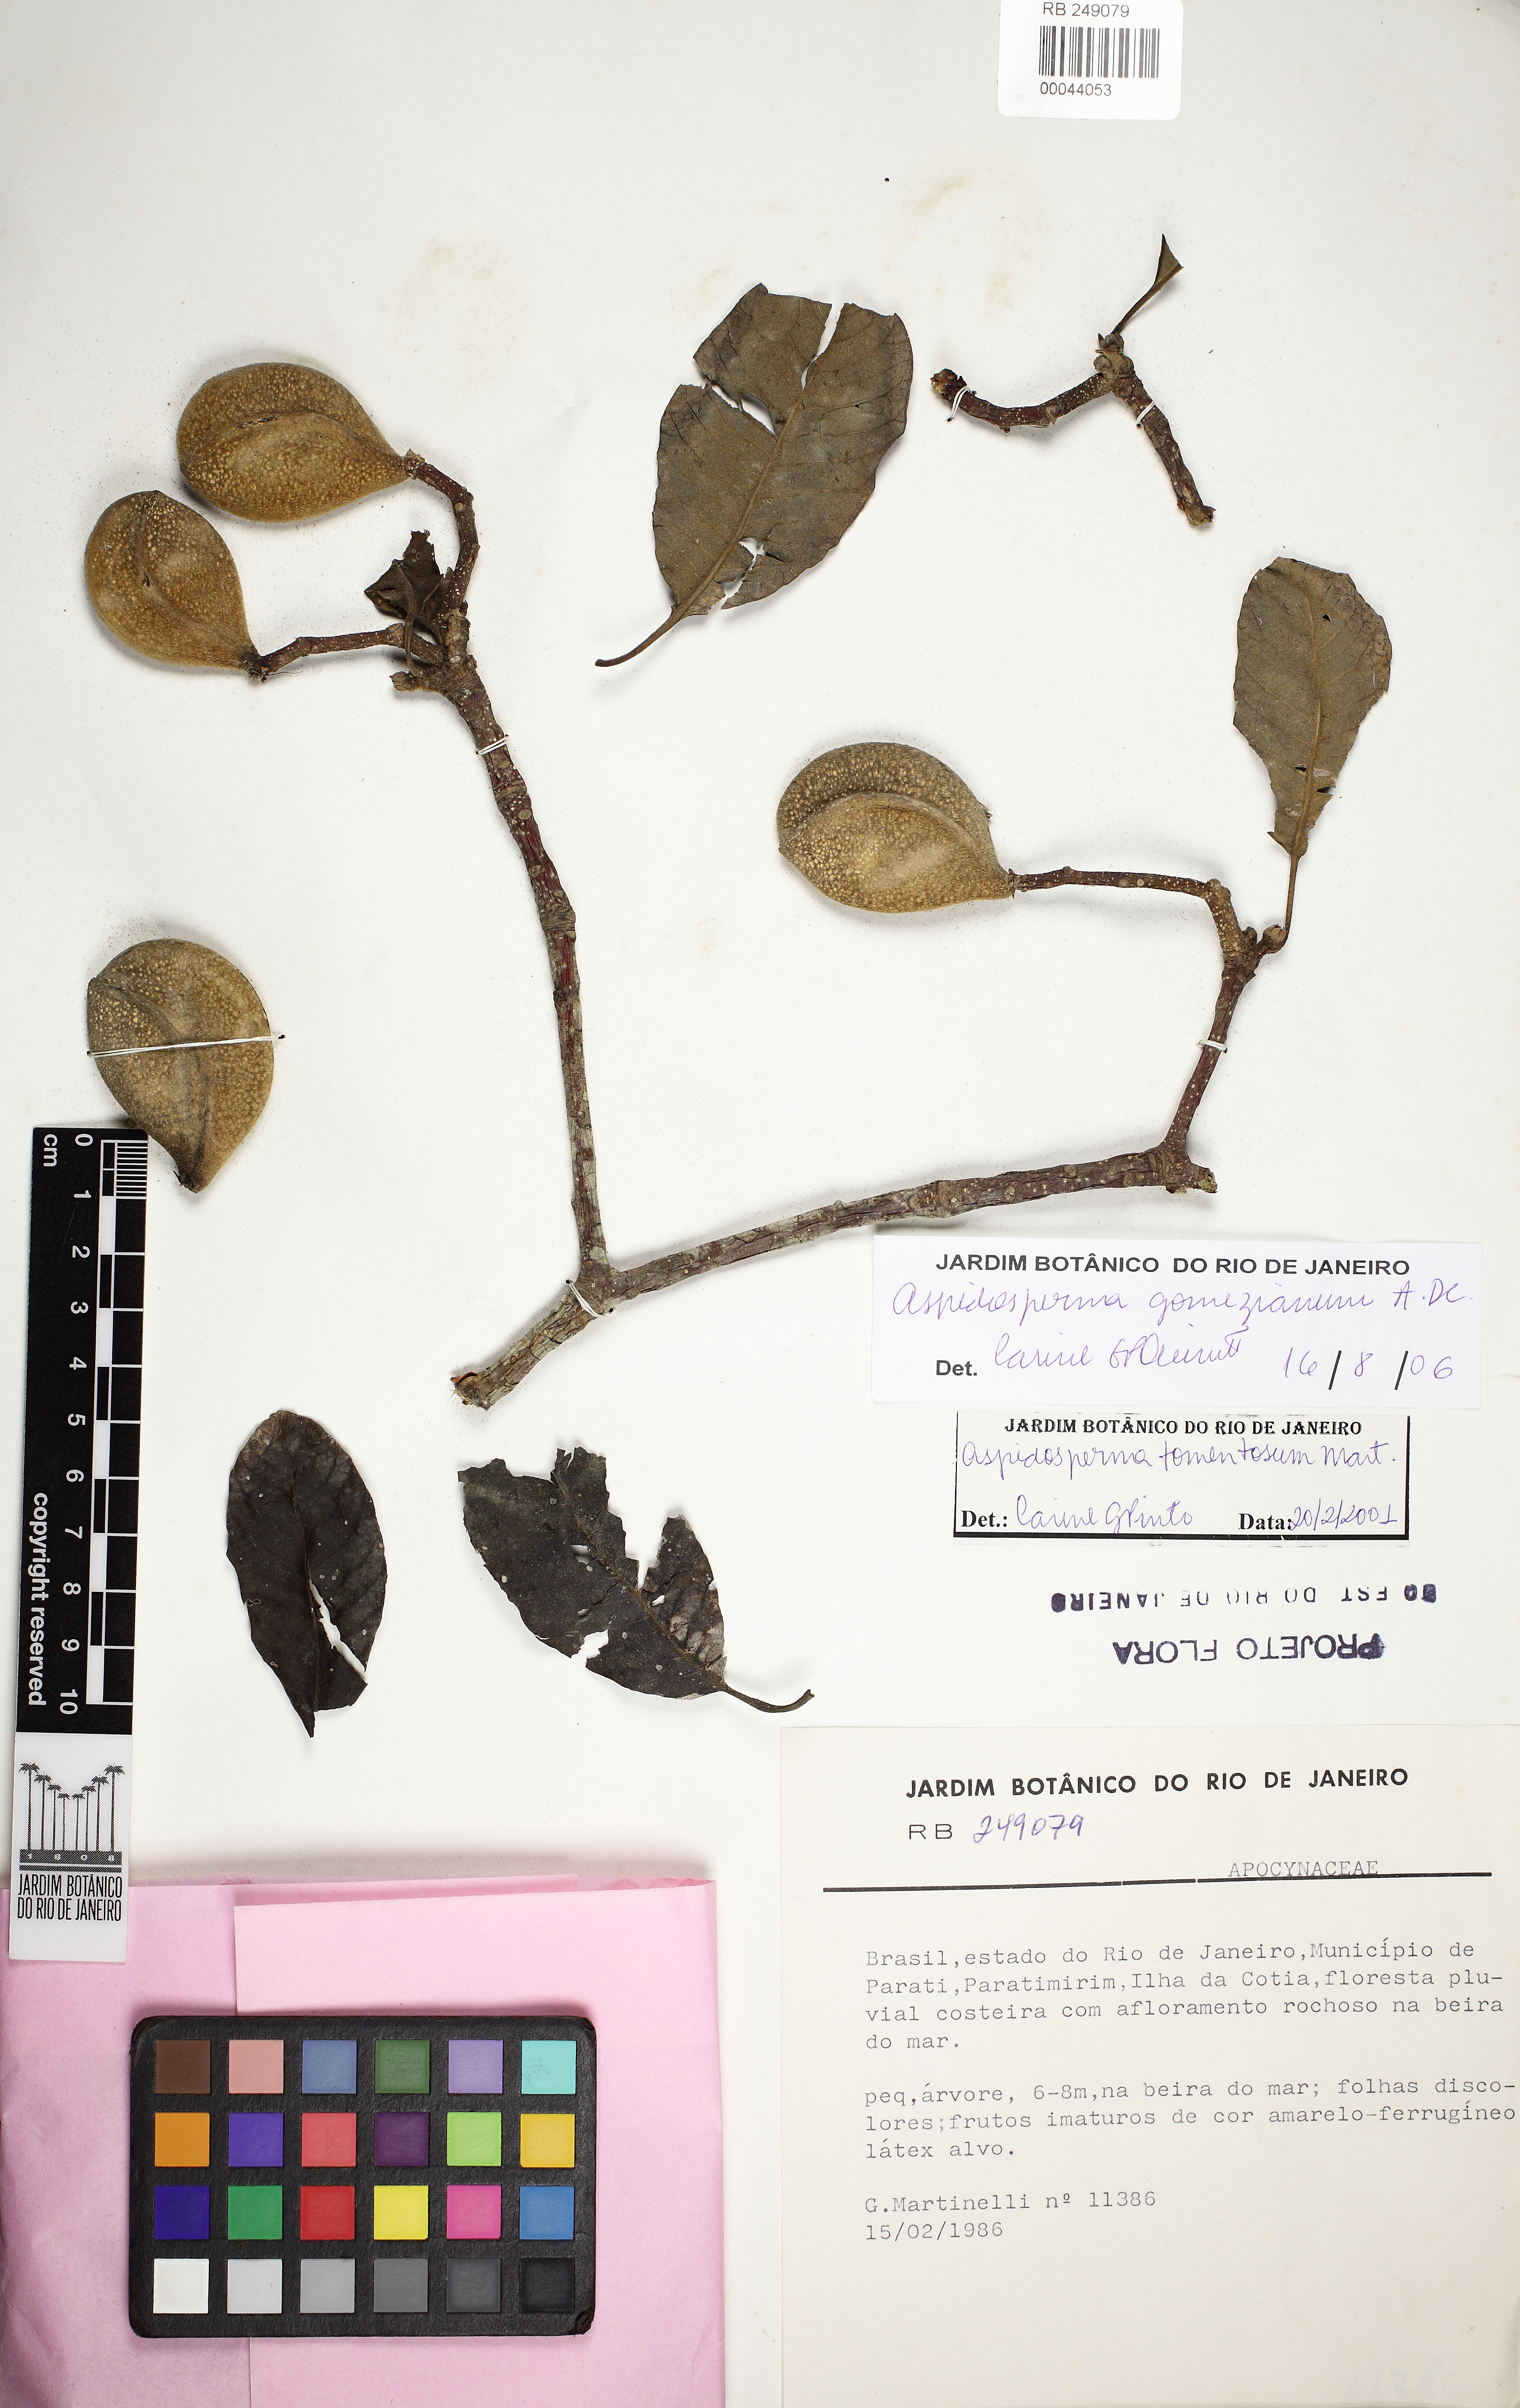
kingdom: Plantae
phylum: Tracheophyta
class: Magnoliopsida
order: Gentianales
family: Apocynaceae
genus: Aspidosperma
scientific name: Aspidosperma gomezianum
